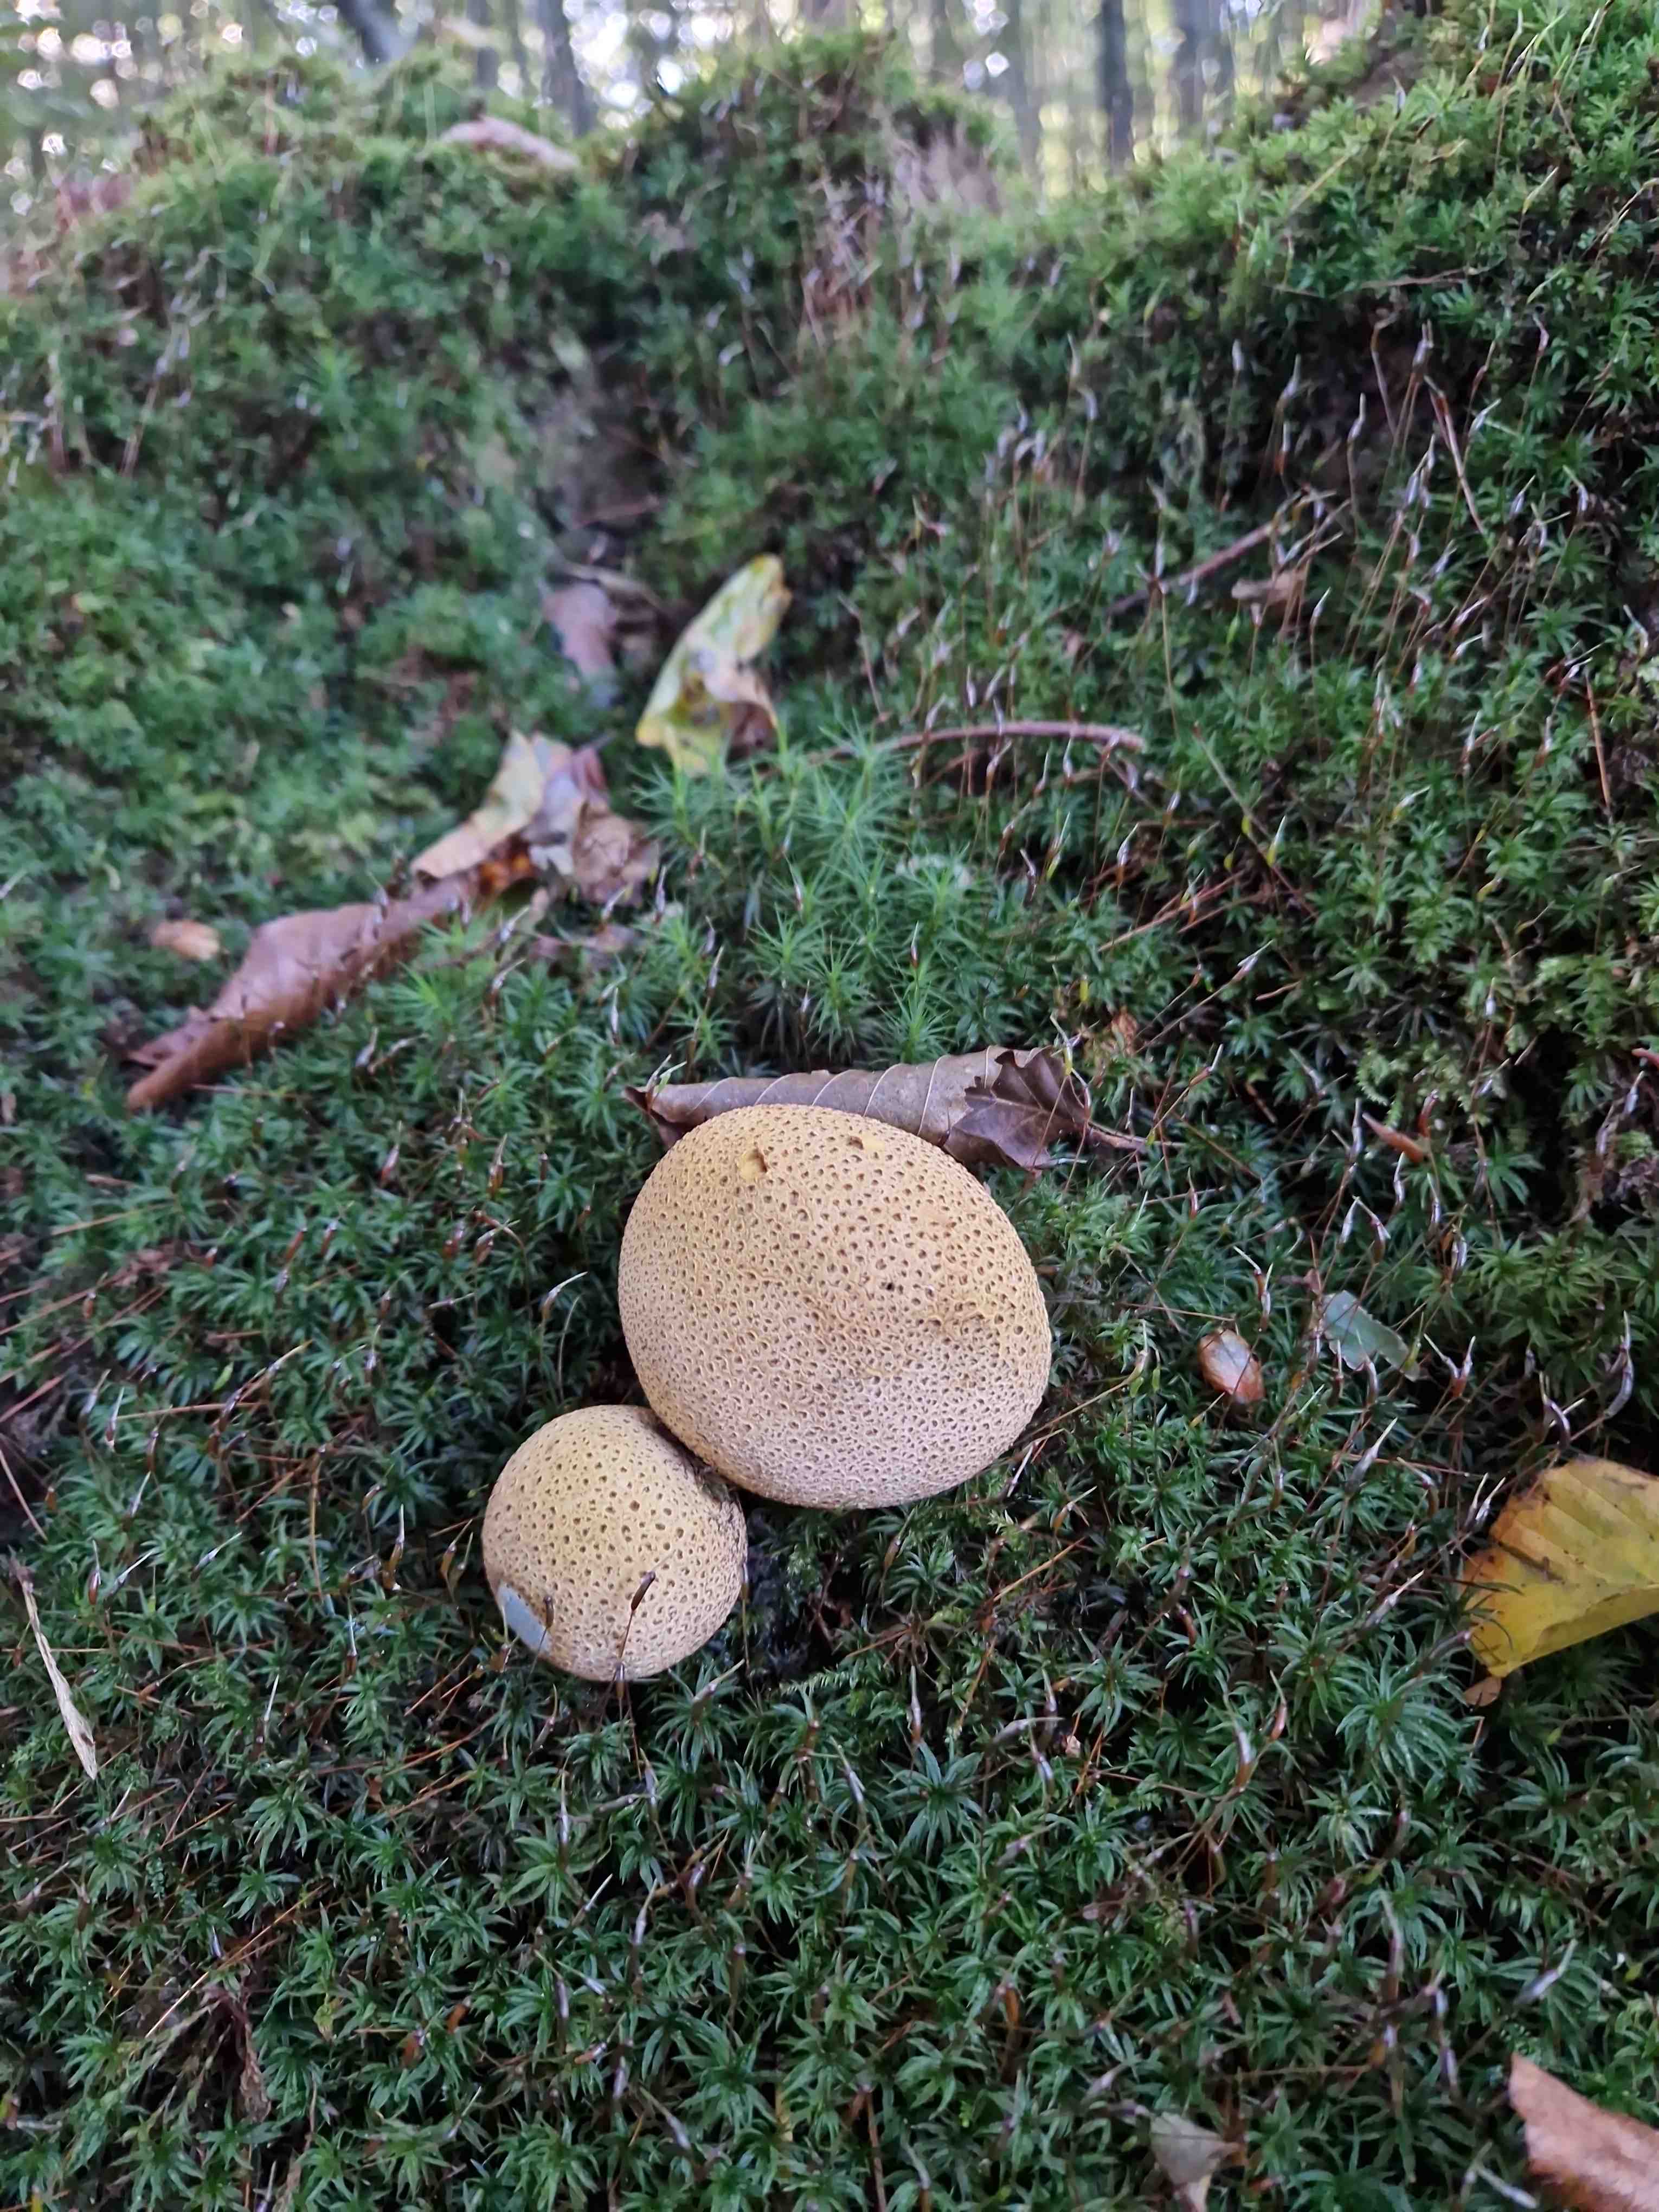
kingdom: Fungi
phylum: Basidiomycota
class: Agaricomycetes
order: Boletales
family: Sclerodermataceae
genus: Scleroderma
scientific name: Scleroderma citrinum
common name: almindelig bruskbold
